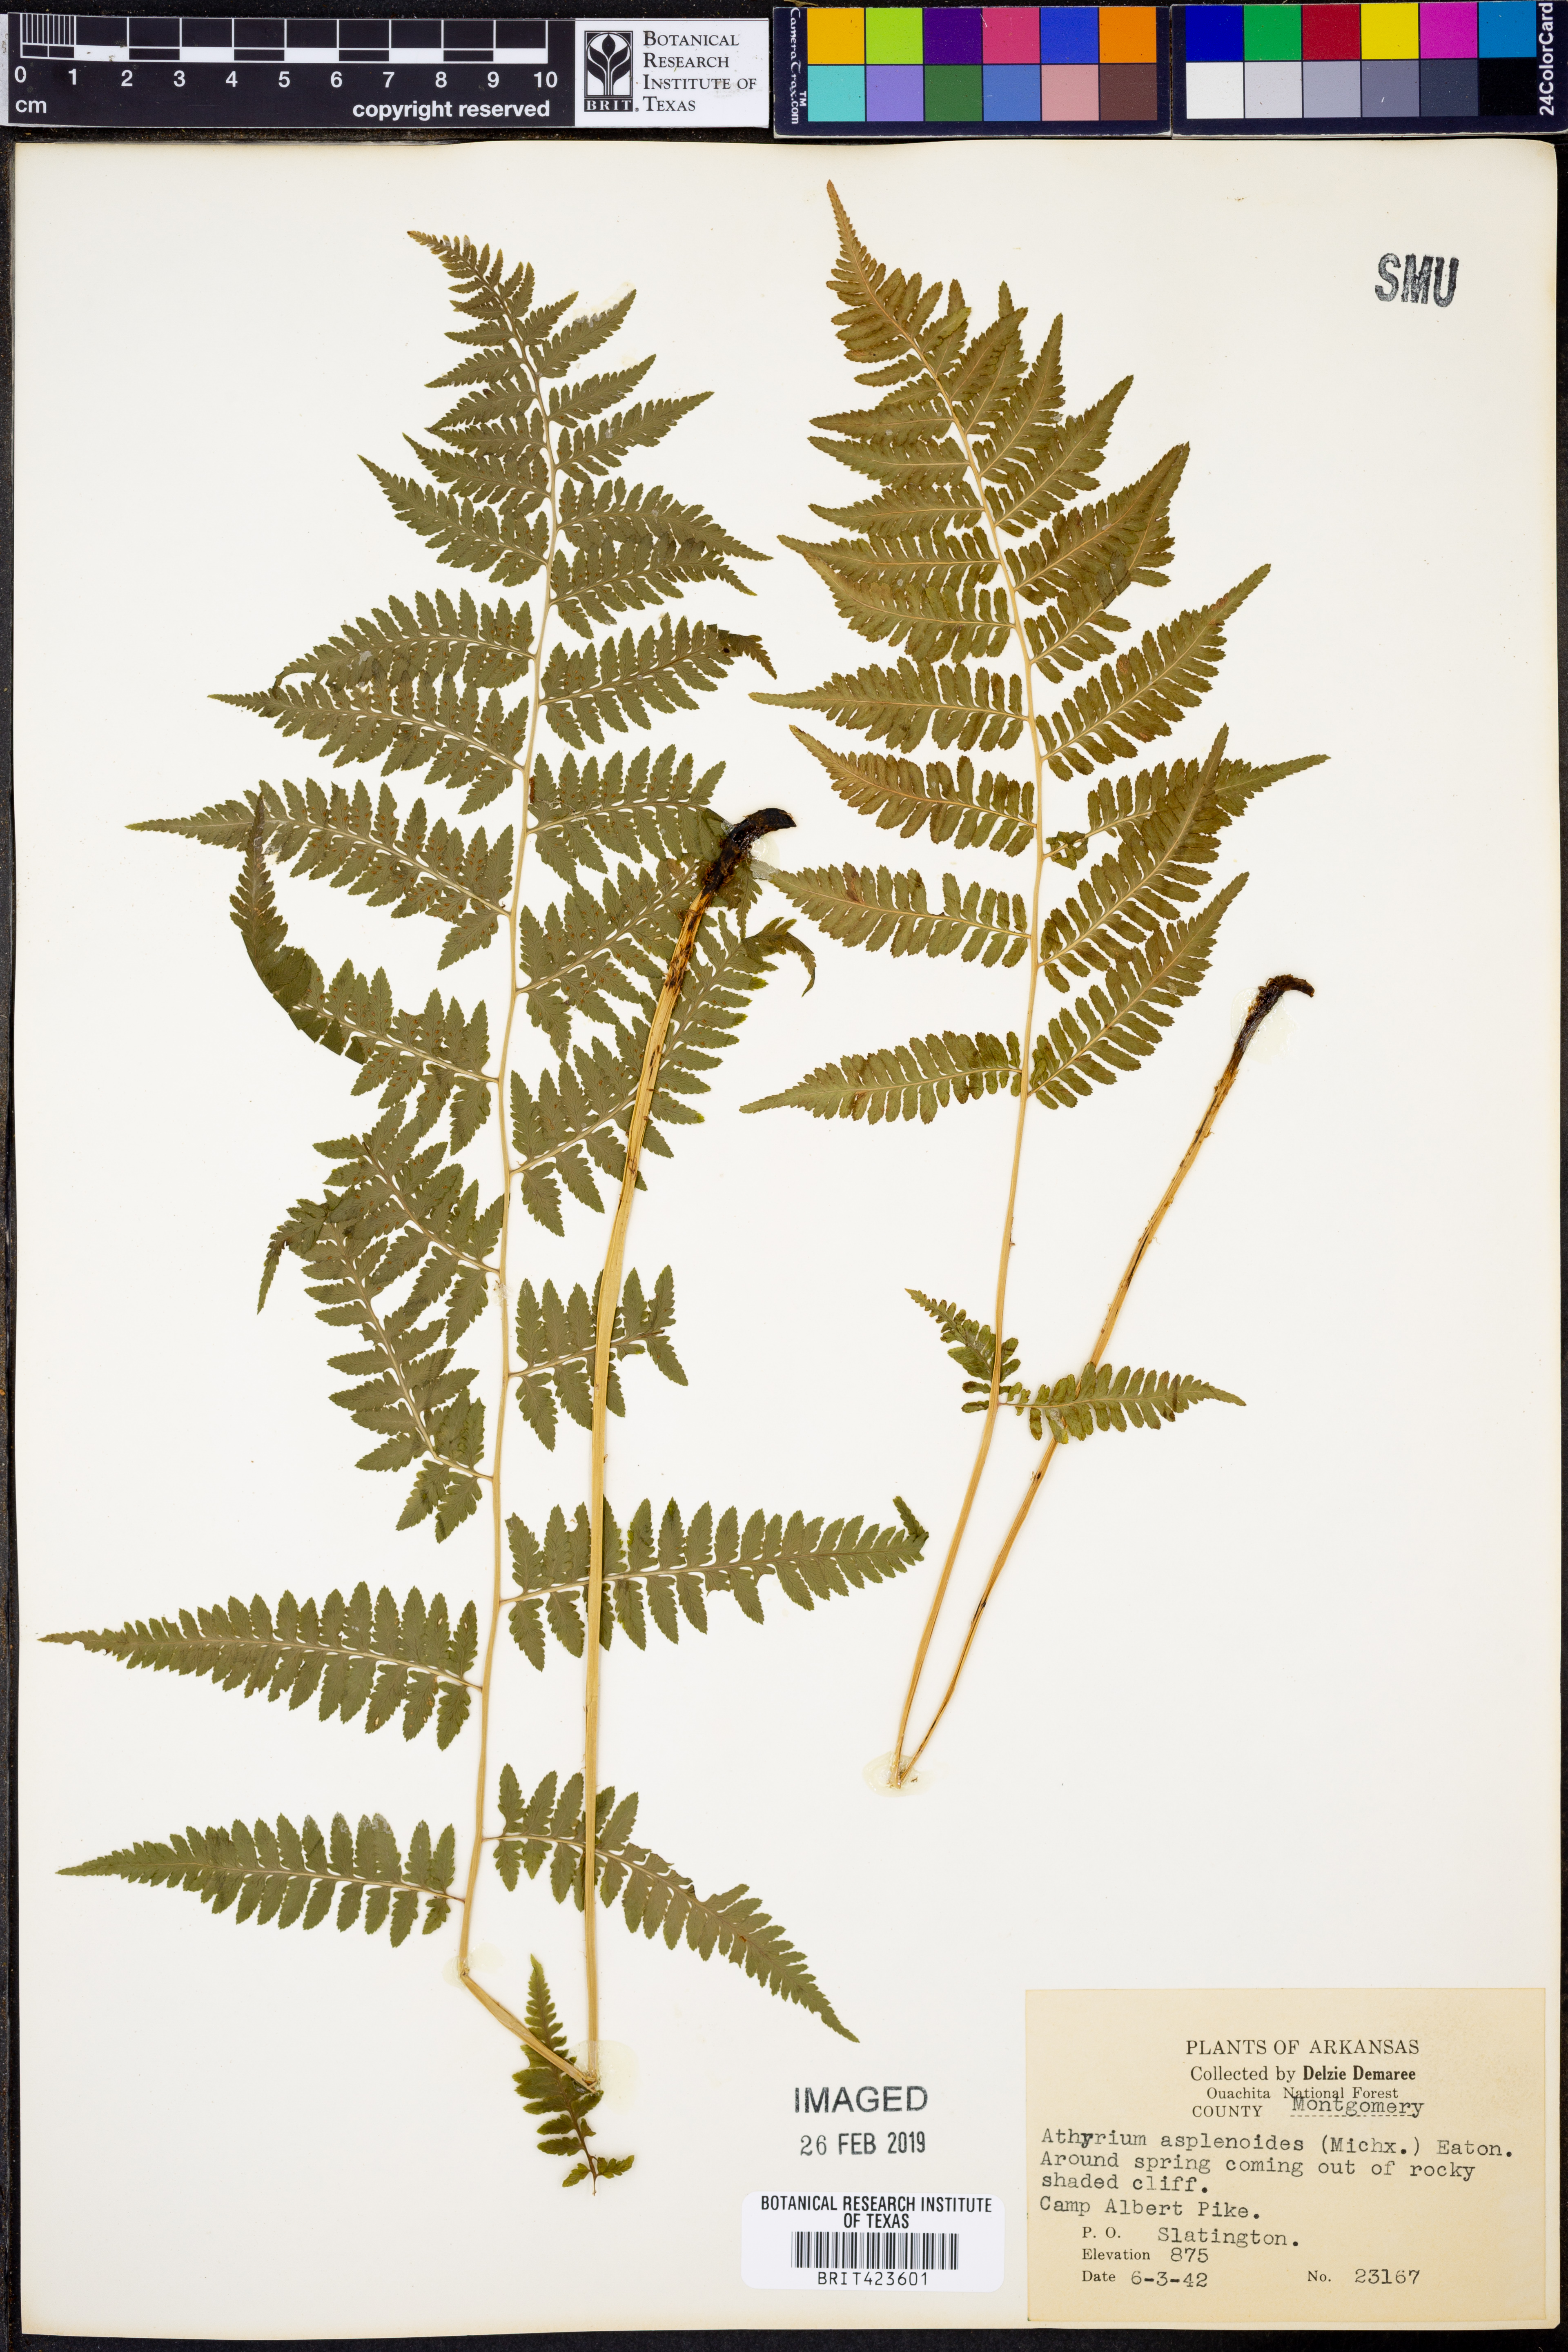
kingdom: Plantae
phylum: Tracheophyta
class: Polypodiopsida
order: Polypodiales
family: Athyriaceae
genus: Athyrium
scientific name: Athyrium asplenioides
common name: Southern lady fern
